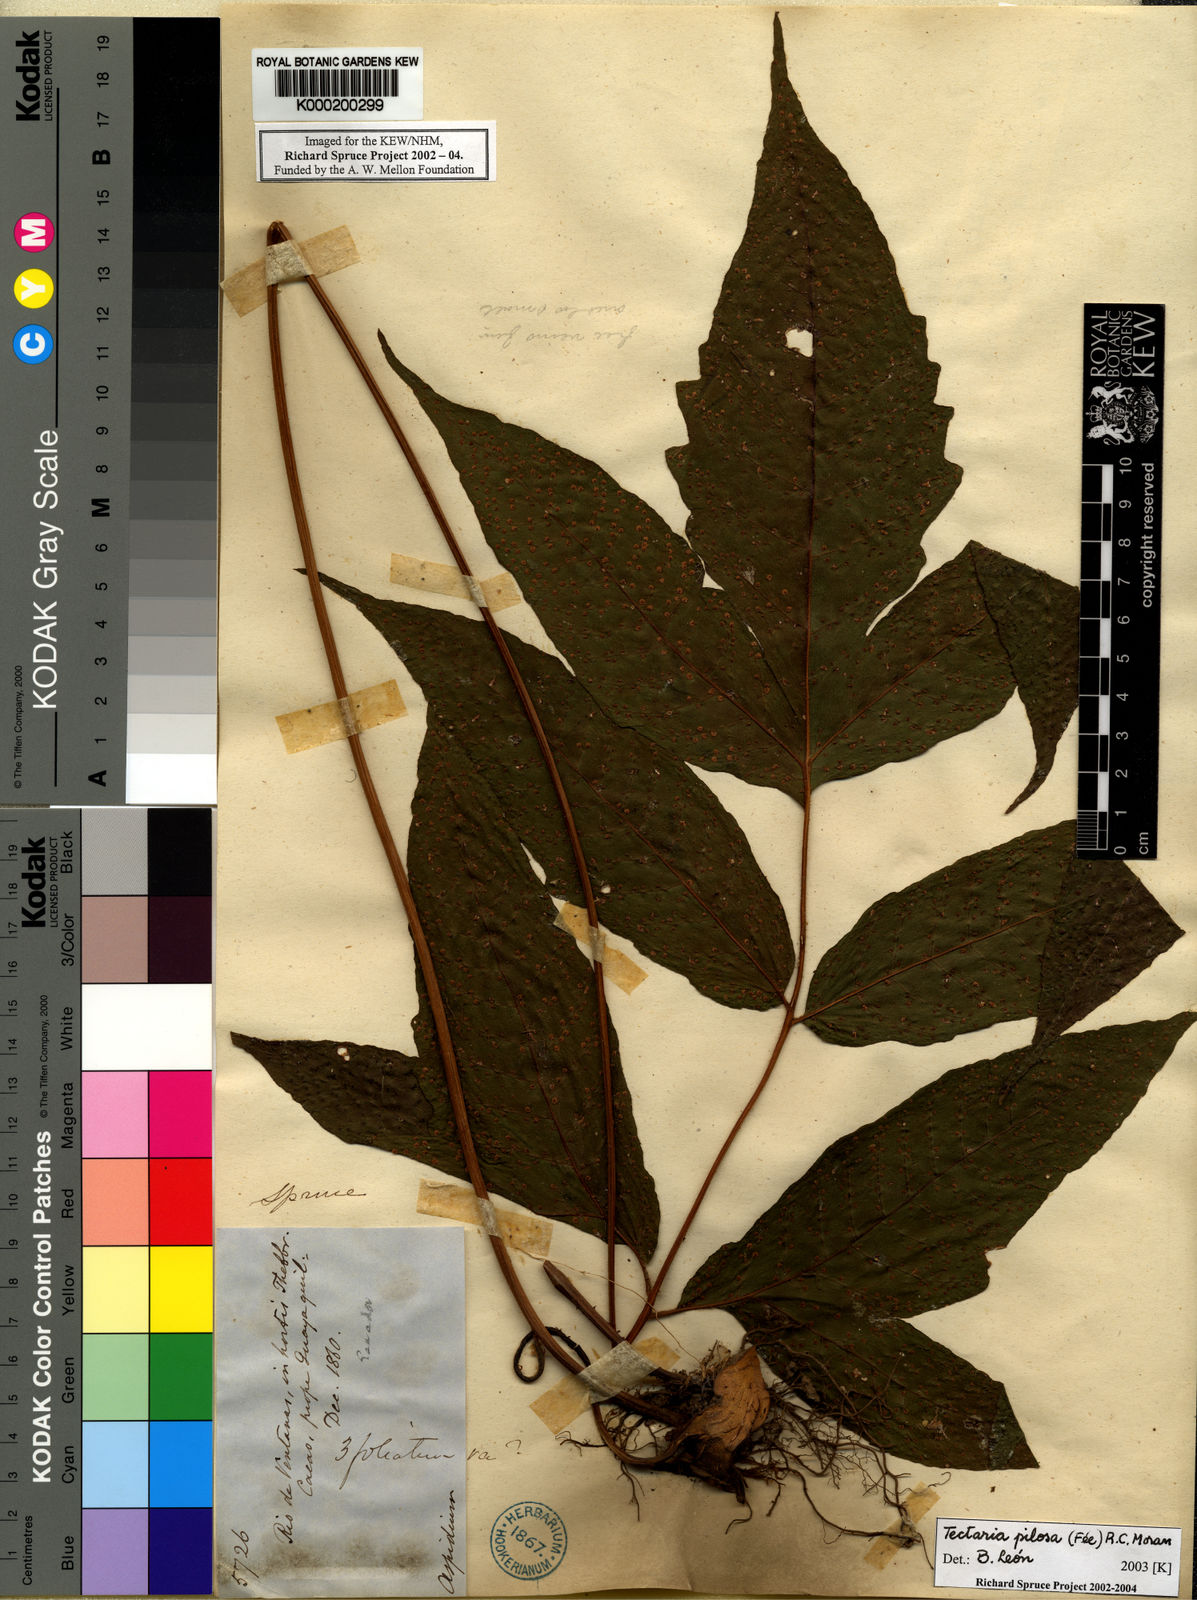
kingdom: Plantae
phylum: Tracheophyta
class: Polypodiopsida
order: Polypodiales
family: Tectariaceae
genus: Tectaria
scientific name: Tectaria
